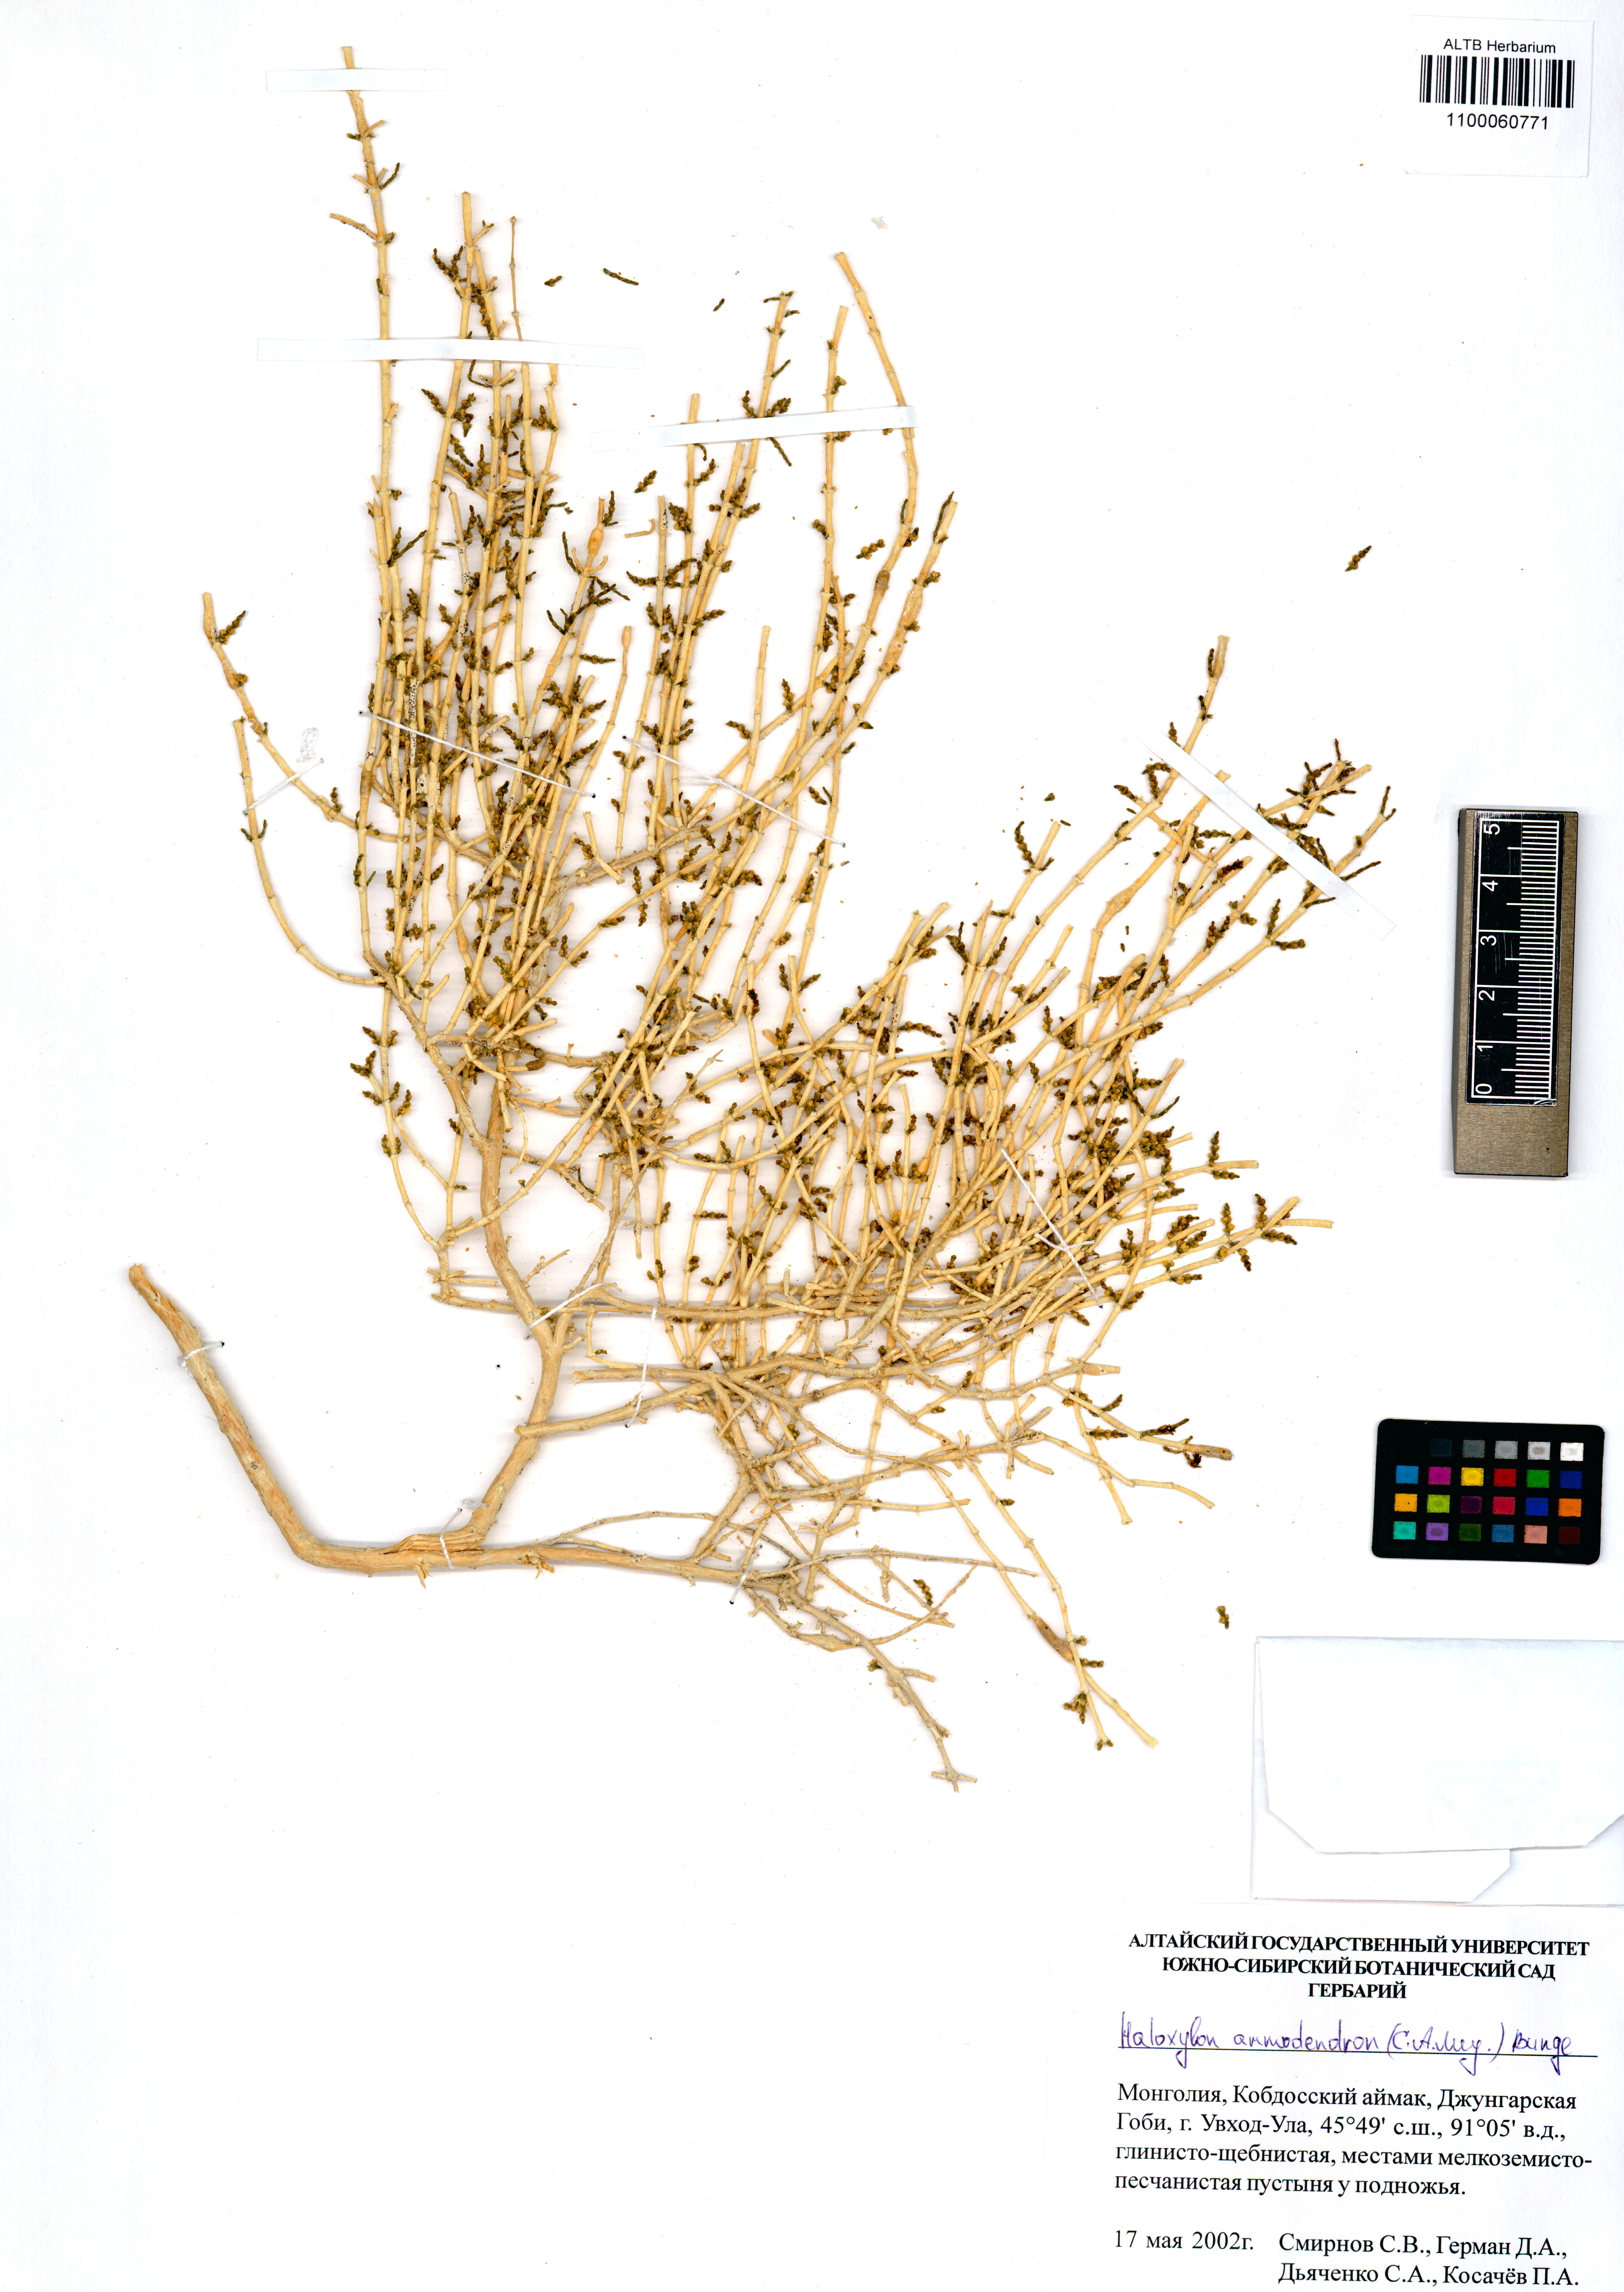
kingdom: Plantae
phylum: Tracheophyta
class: Magnoliopsida
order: Caryophyllales
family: Amaranthaceae
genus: Haloxylon
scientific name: Haloxylon ammodendron
